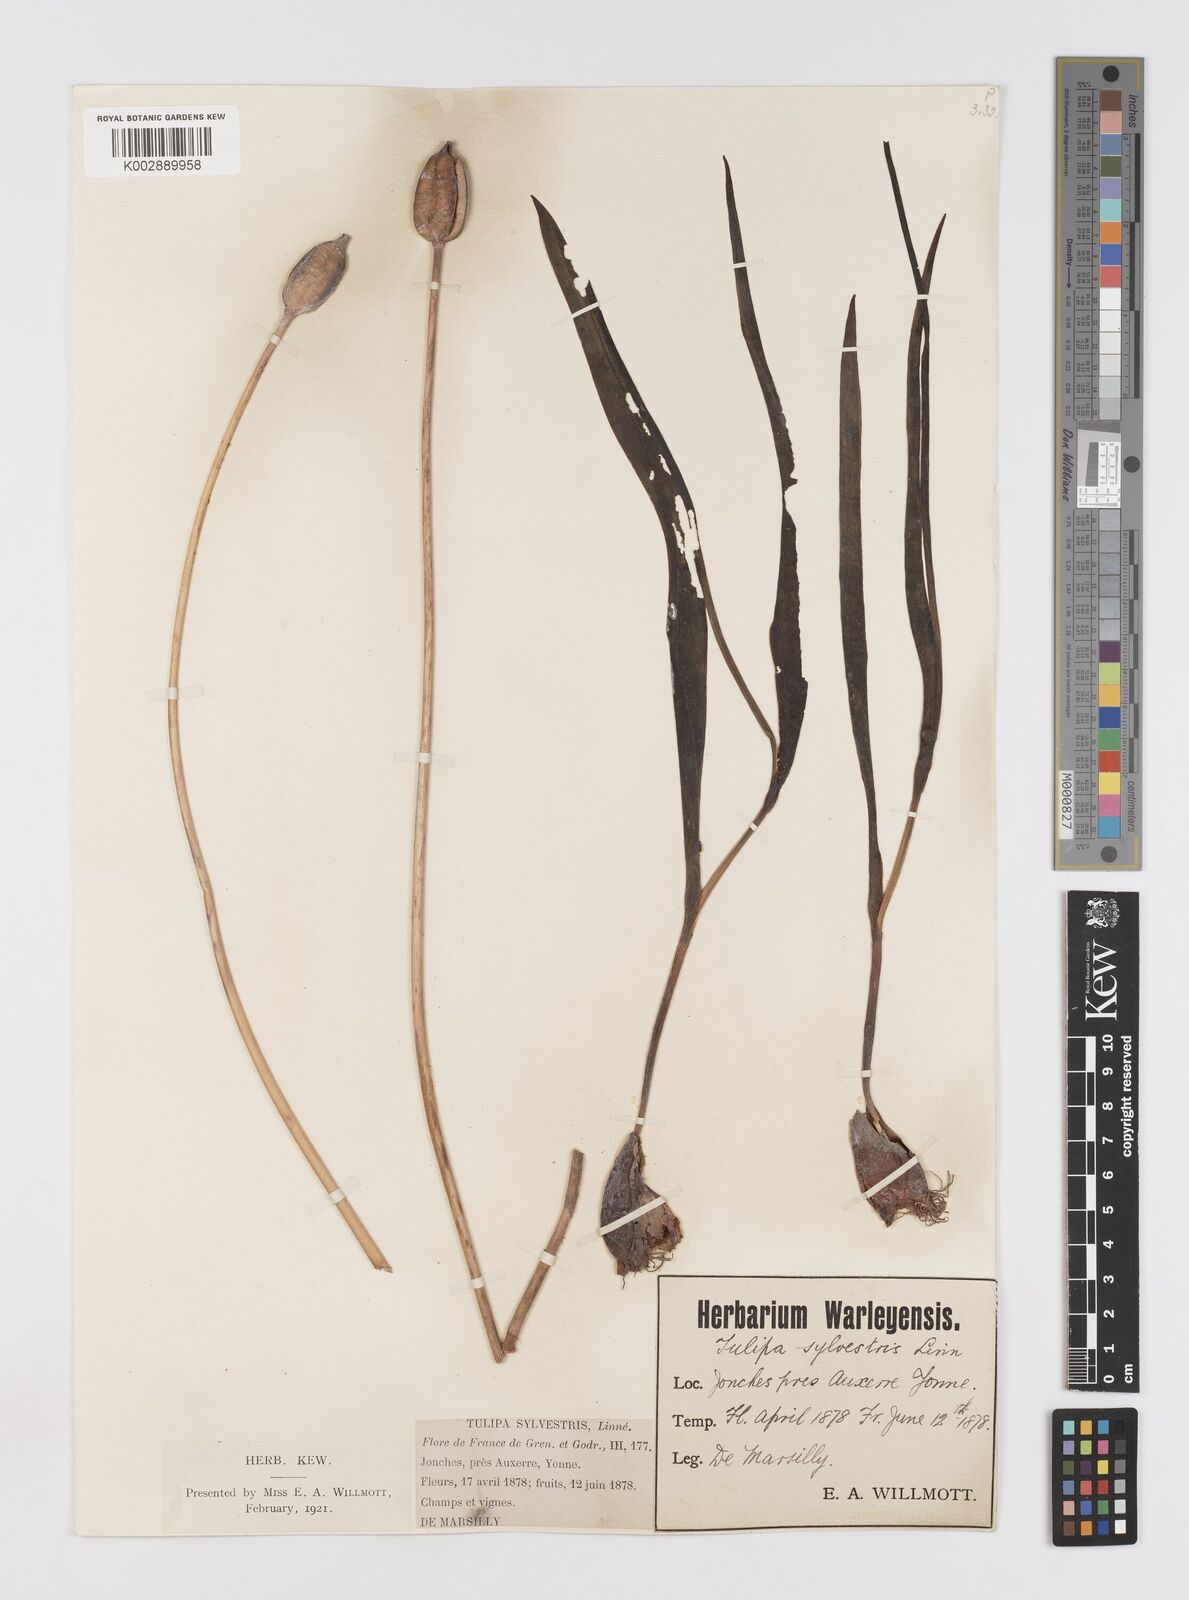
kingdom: Plantae
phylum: Tracheophyta
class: Liliopsida
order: Liliales
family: Liliaceae
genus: Tulipa
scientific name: Tulipa sylvestris
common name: Wild tulip
